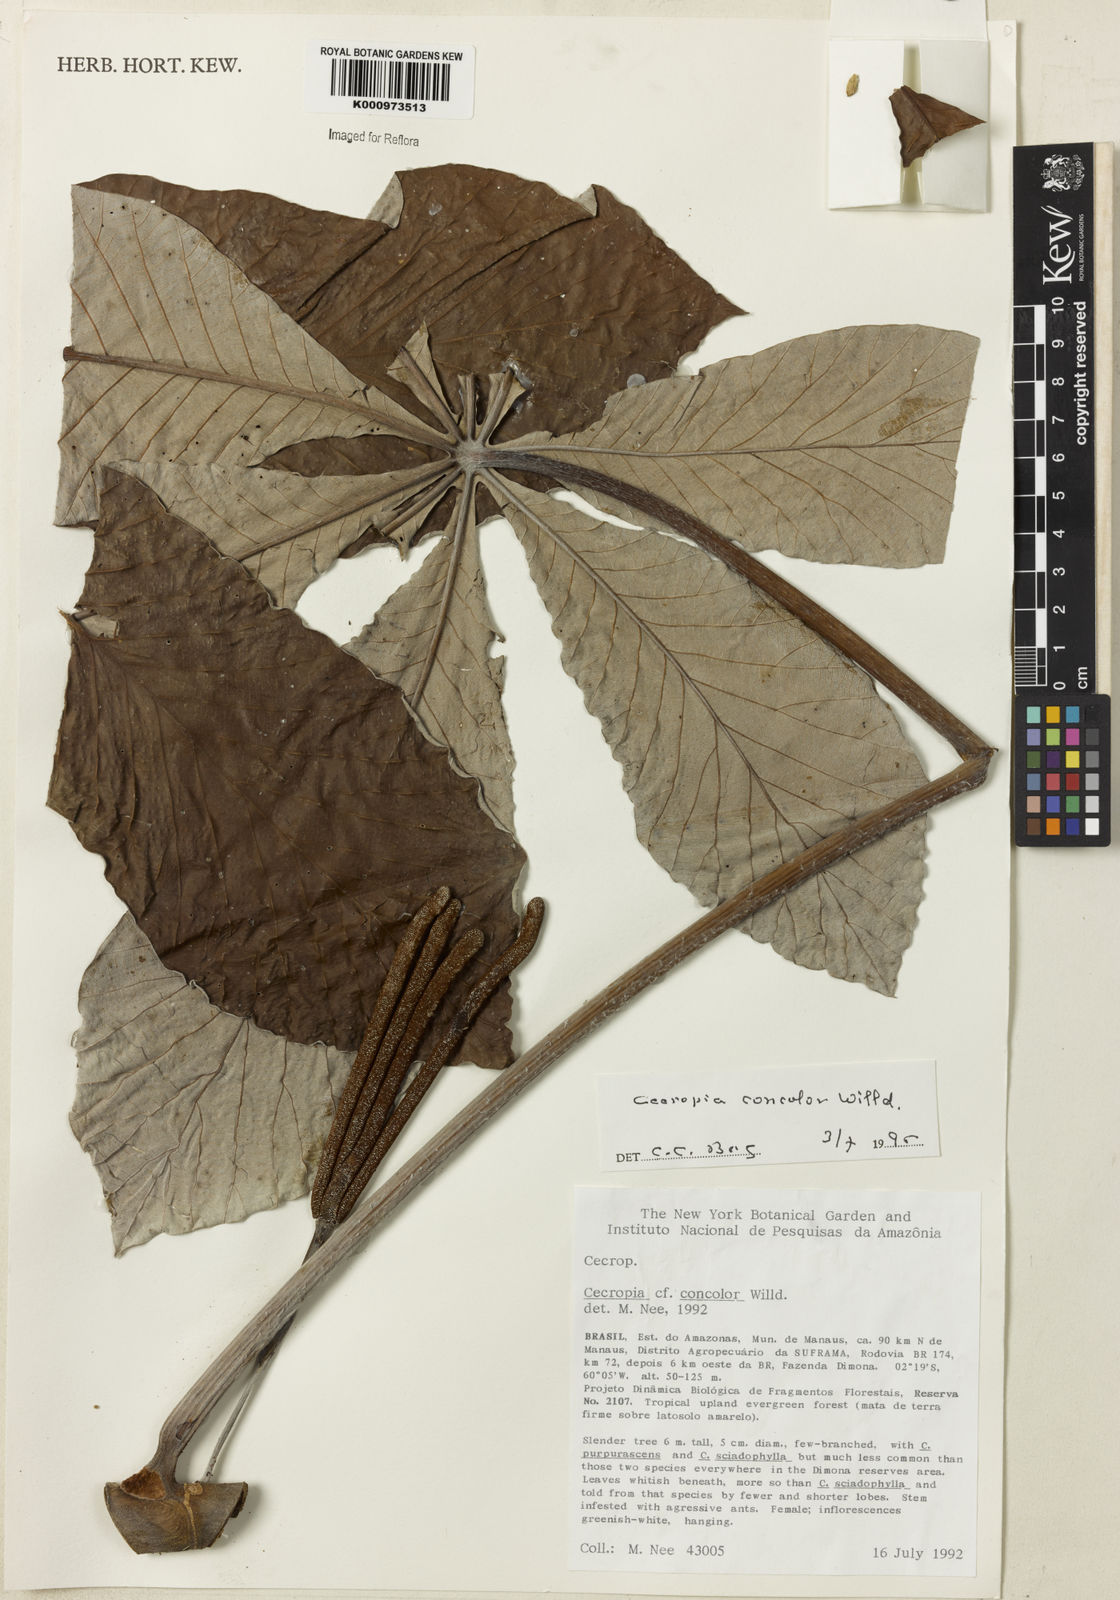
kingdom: Plantae
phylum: Tracheophyta
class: Magnoliopsida
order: Rosales
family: Urticaceae
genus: Cecropia
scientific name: Cecropia concolor
